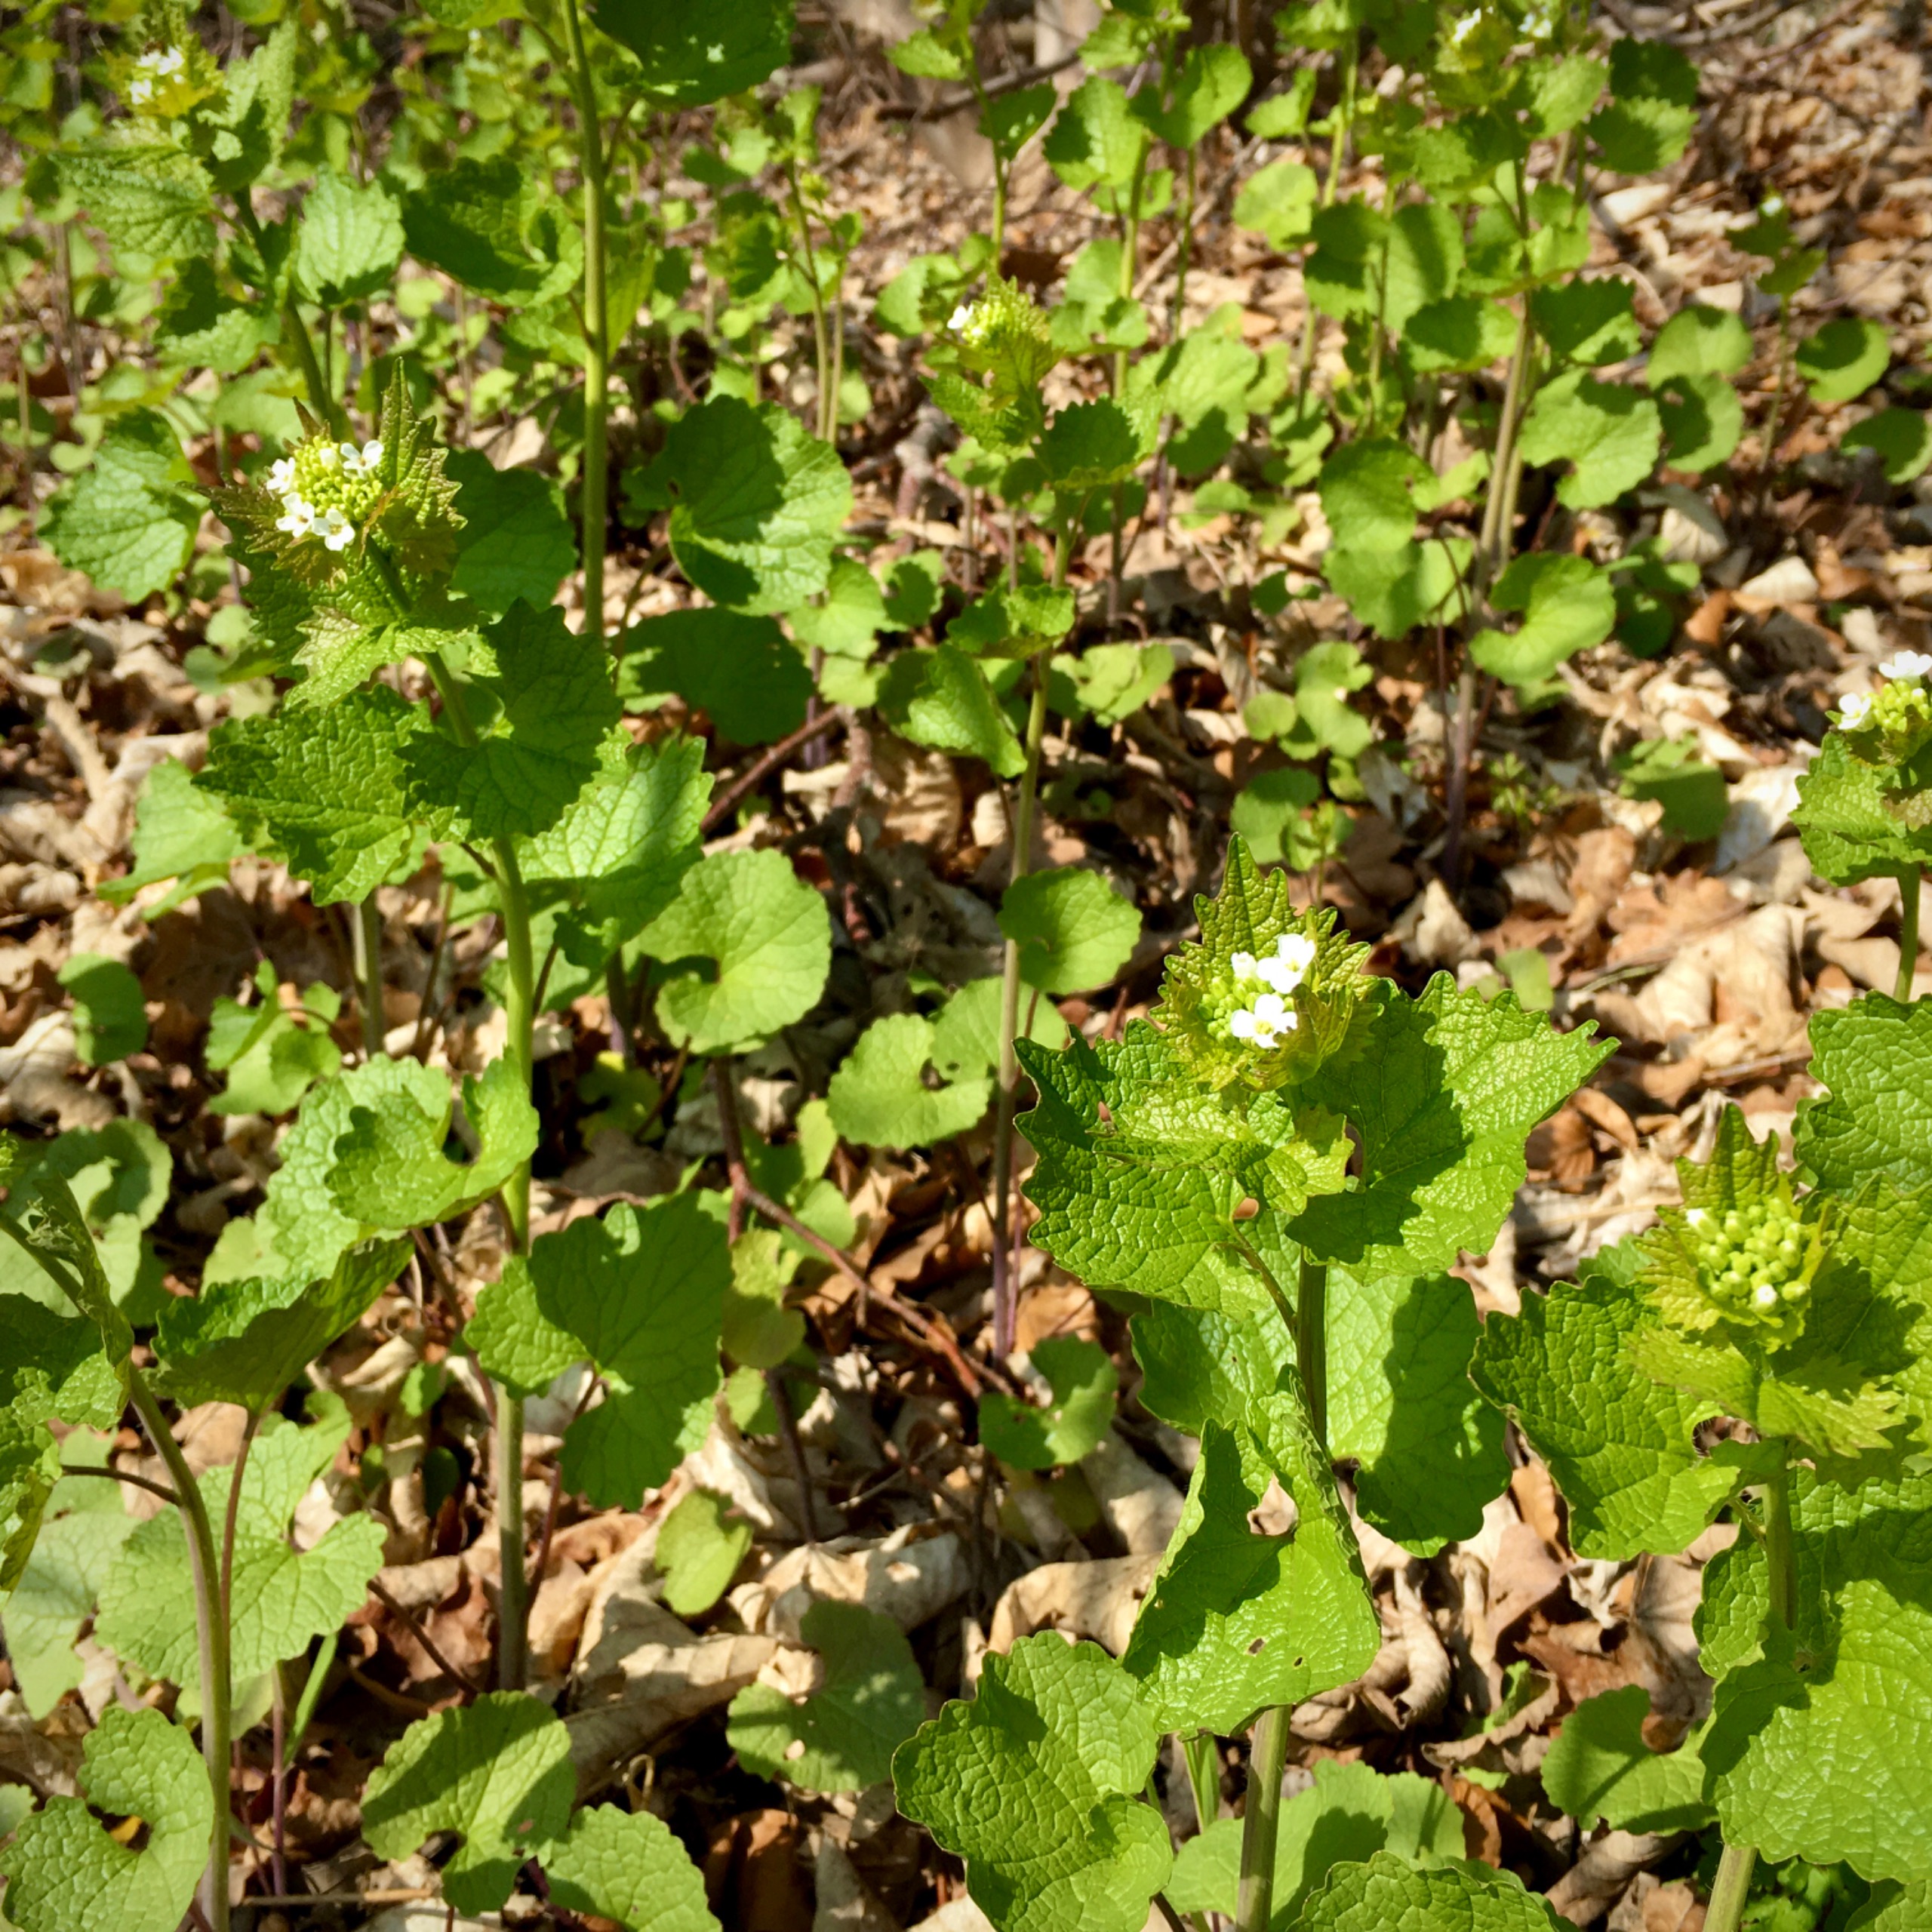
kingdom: Plantae
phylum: Tracheophyta
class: Magnoliopsida
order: Brassicales
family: Brassicaceae
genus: Alliaria
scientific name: Alliaria petiolata
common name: Løgkarse
